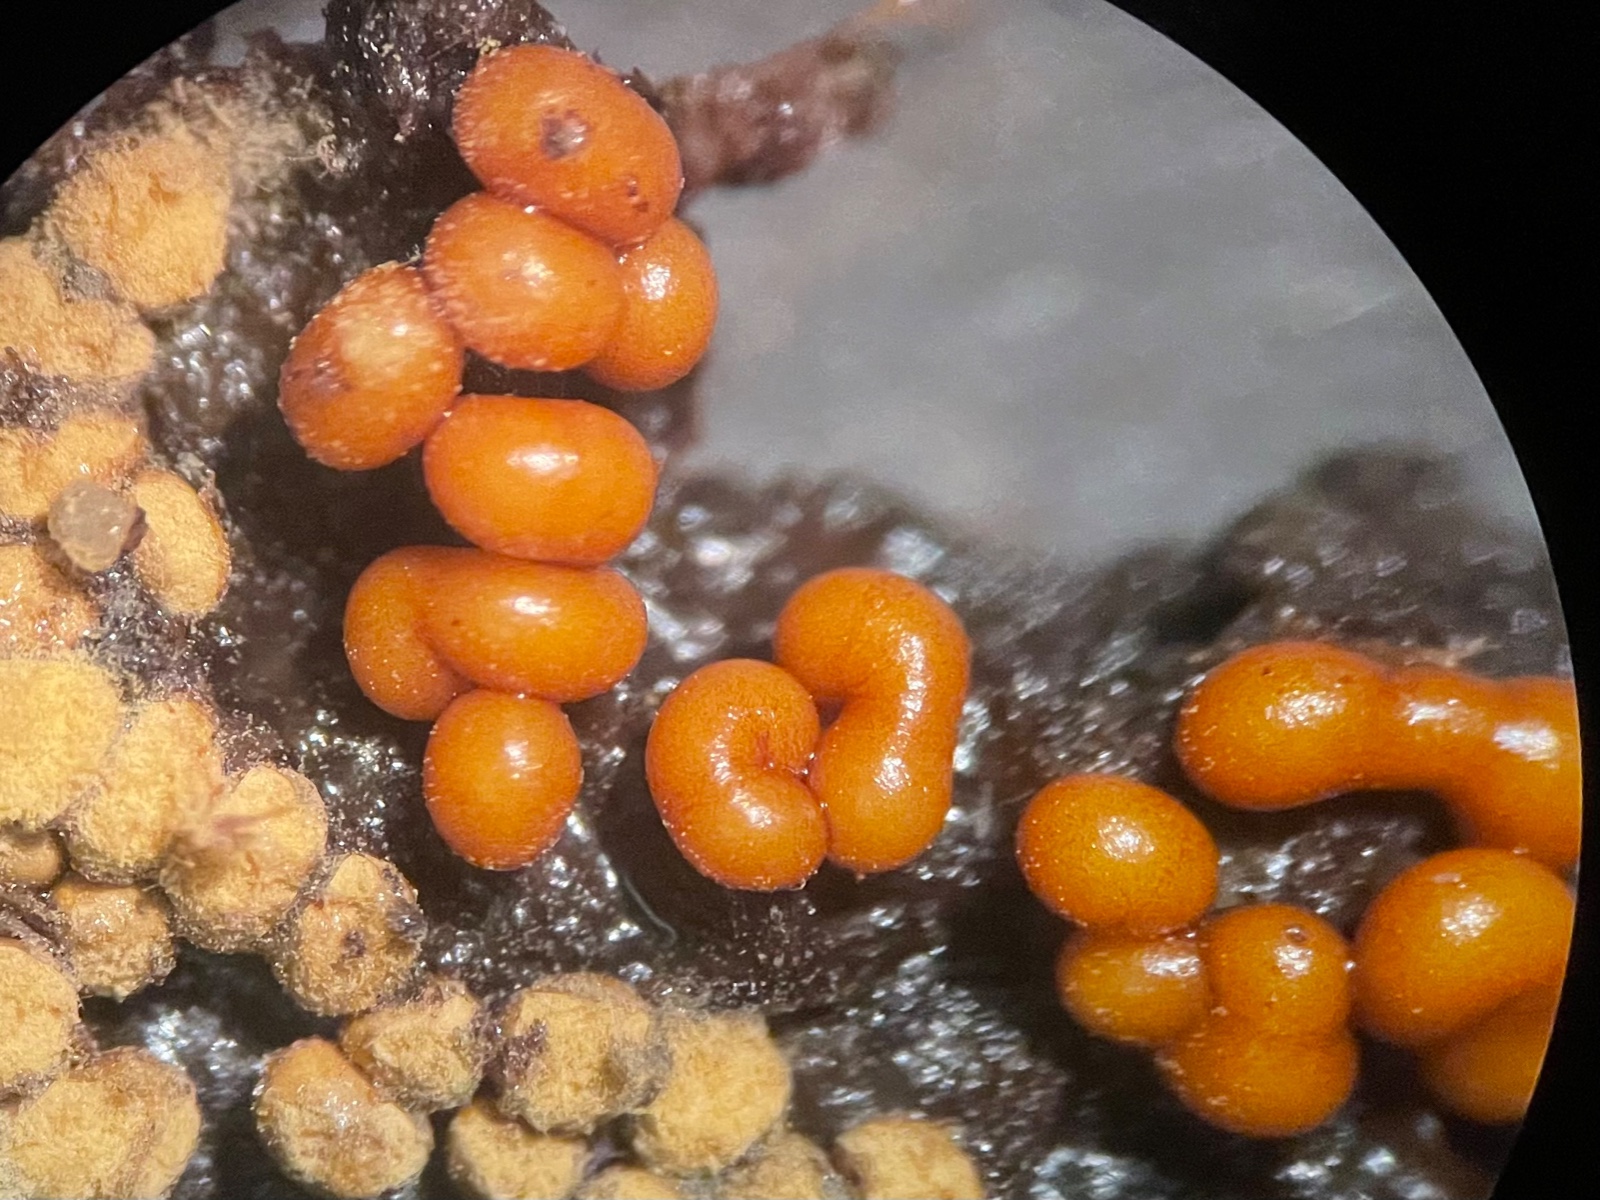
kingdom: Protozoa
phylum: Mycetozoa
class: Myxomycetes
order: Trichiales
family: Trichiaceae
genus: Trichia
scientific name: Trichia
